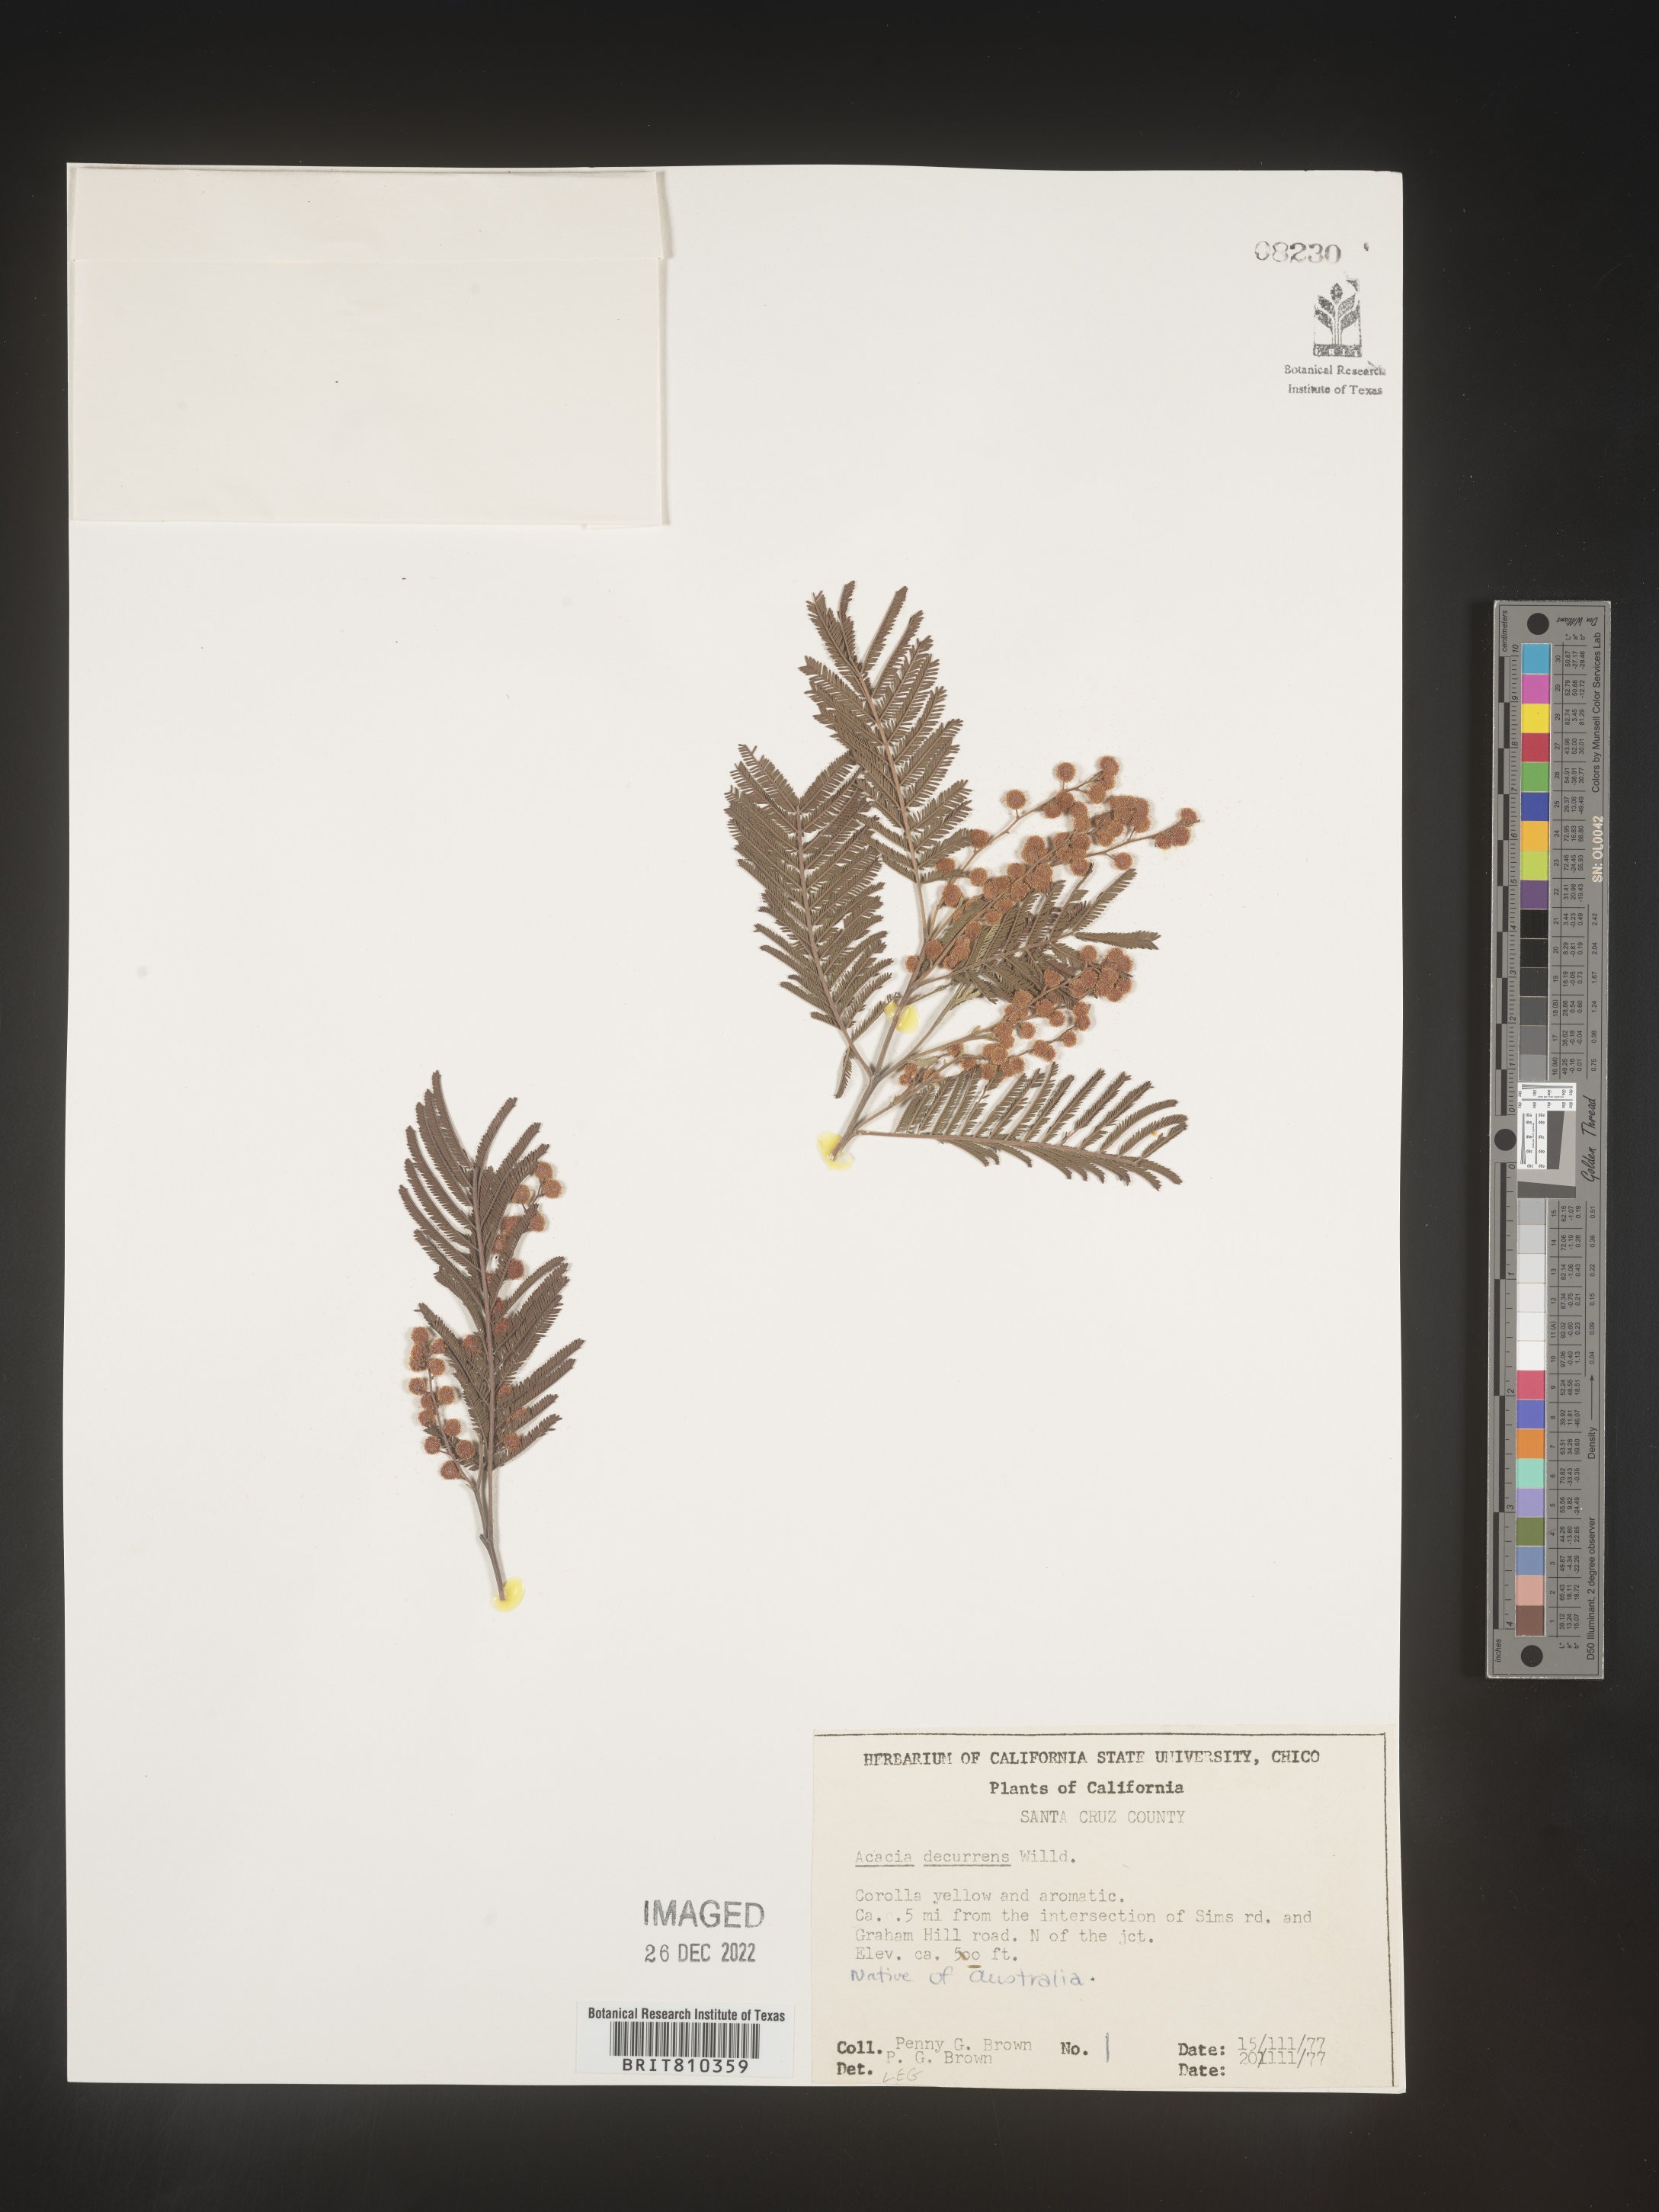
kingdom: Plantae
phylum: Tracheophyta
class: Magnoliopsida
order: Fabales
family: Fabaceae
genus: Acacia
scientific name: Acacia
